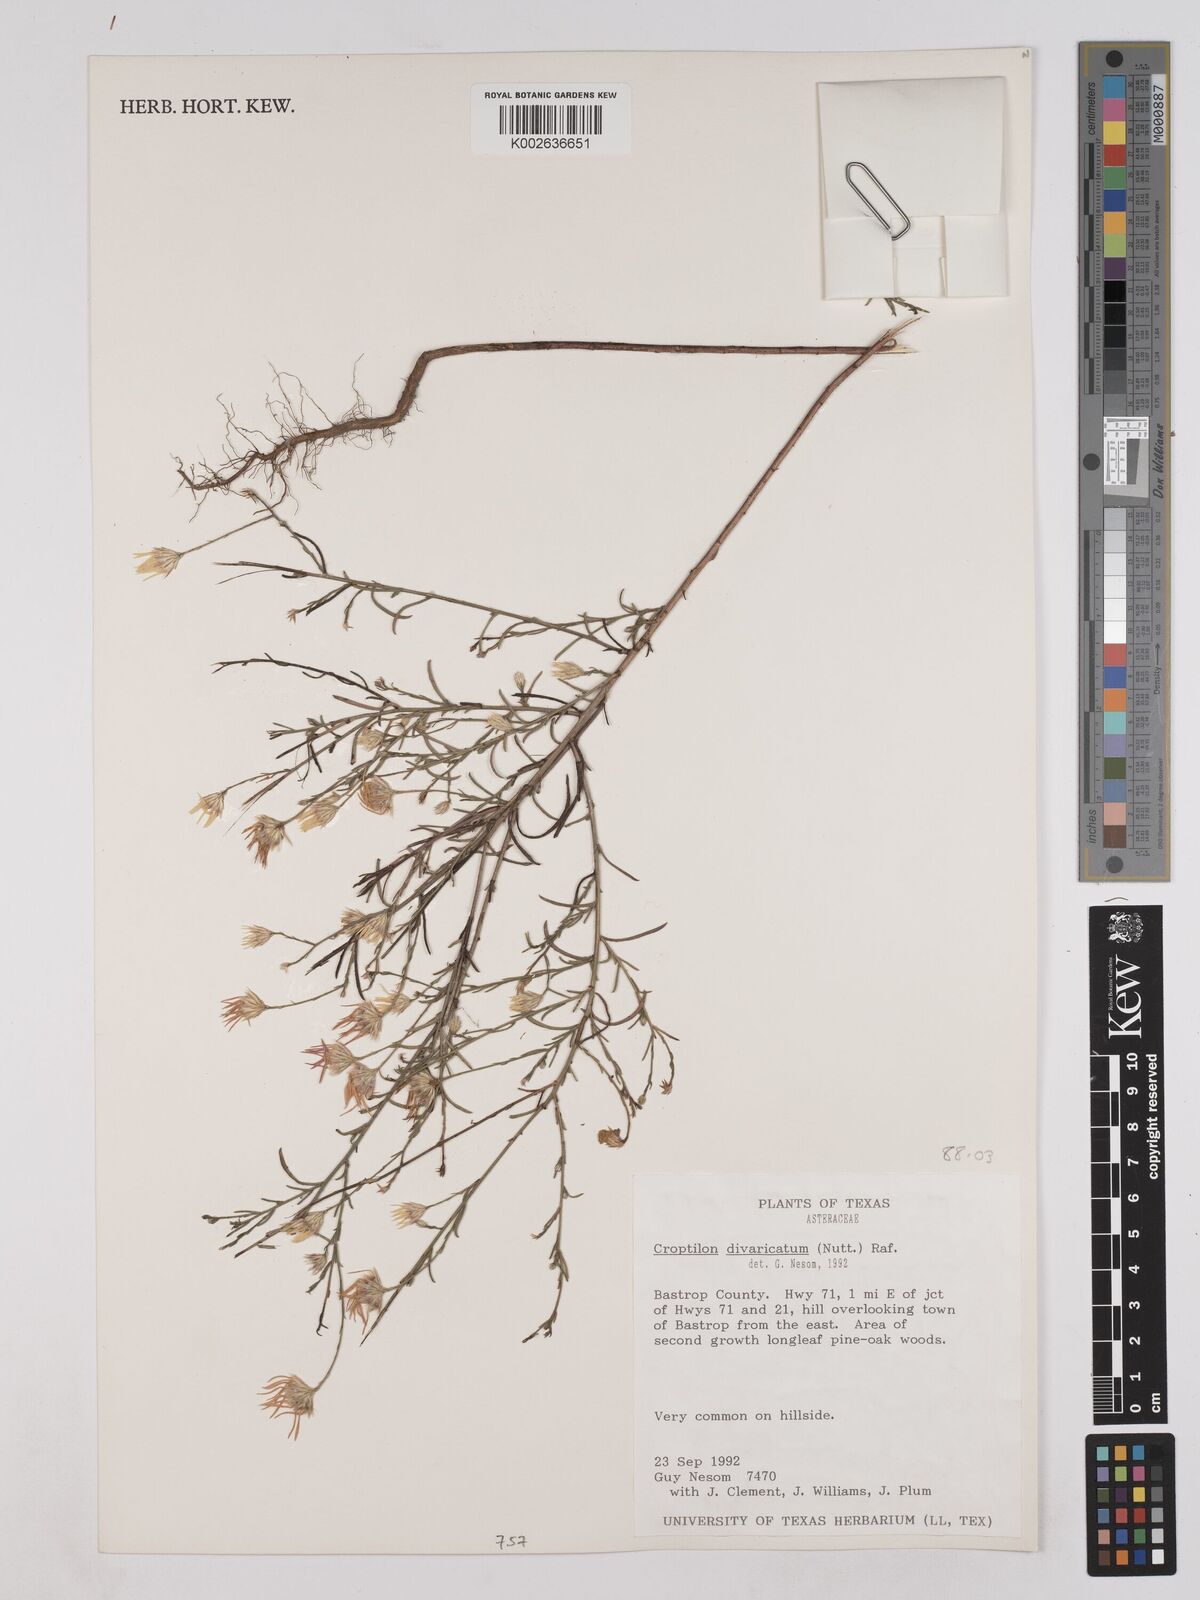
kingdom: Plantae
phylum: Tracheophyta
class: Magnoliopsida
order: Asterales
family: Asteraceae
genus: Croptilon
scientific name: Croptilon divaricatum
